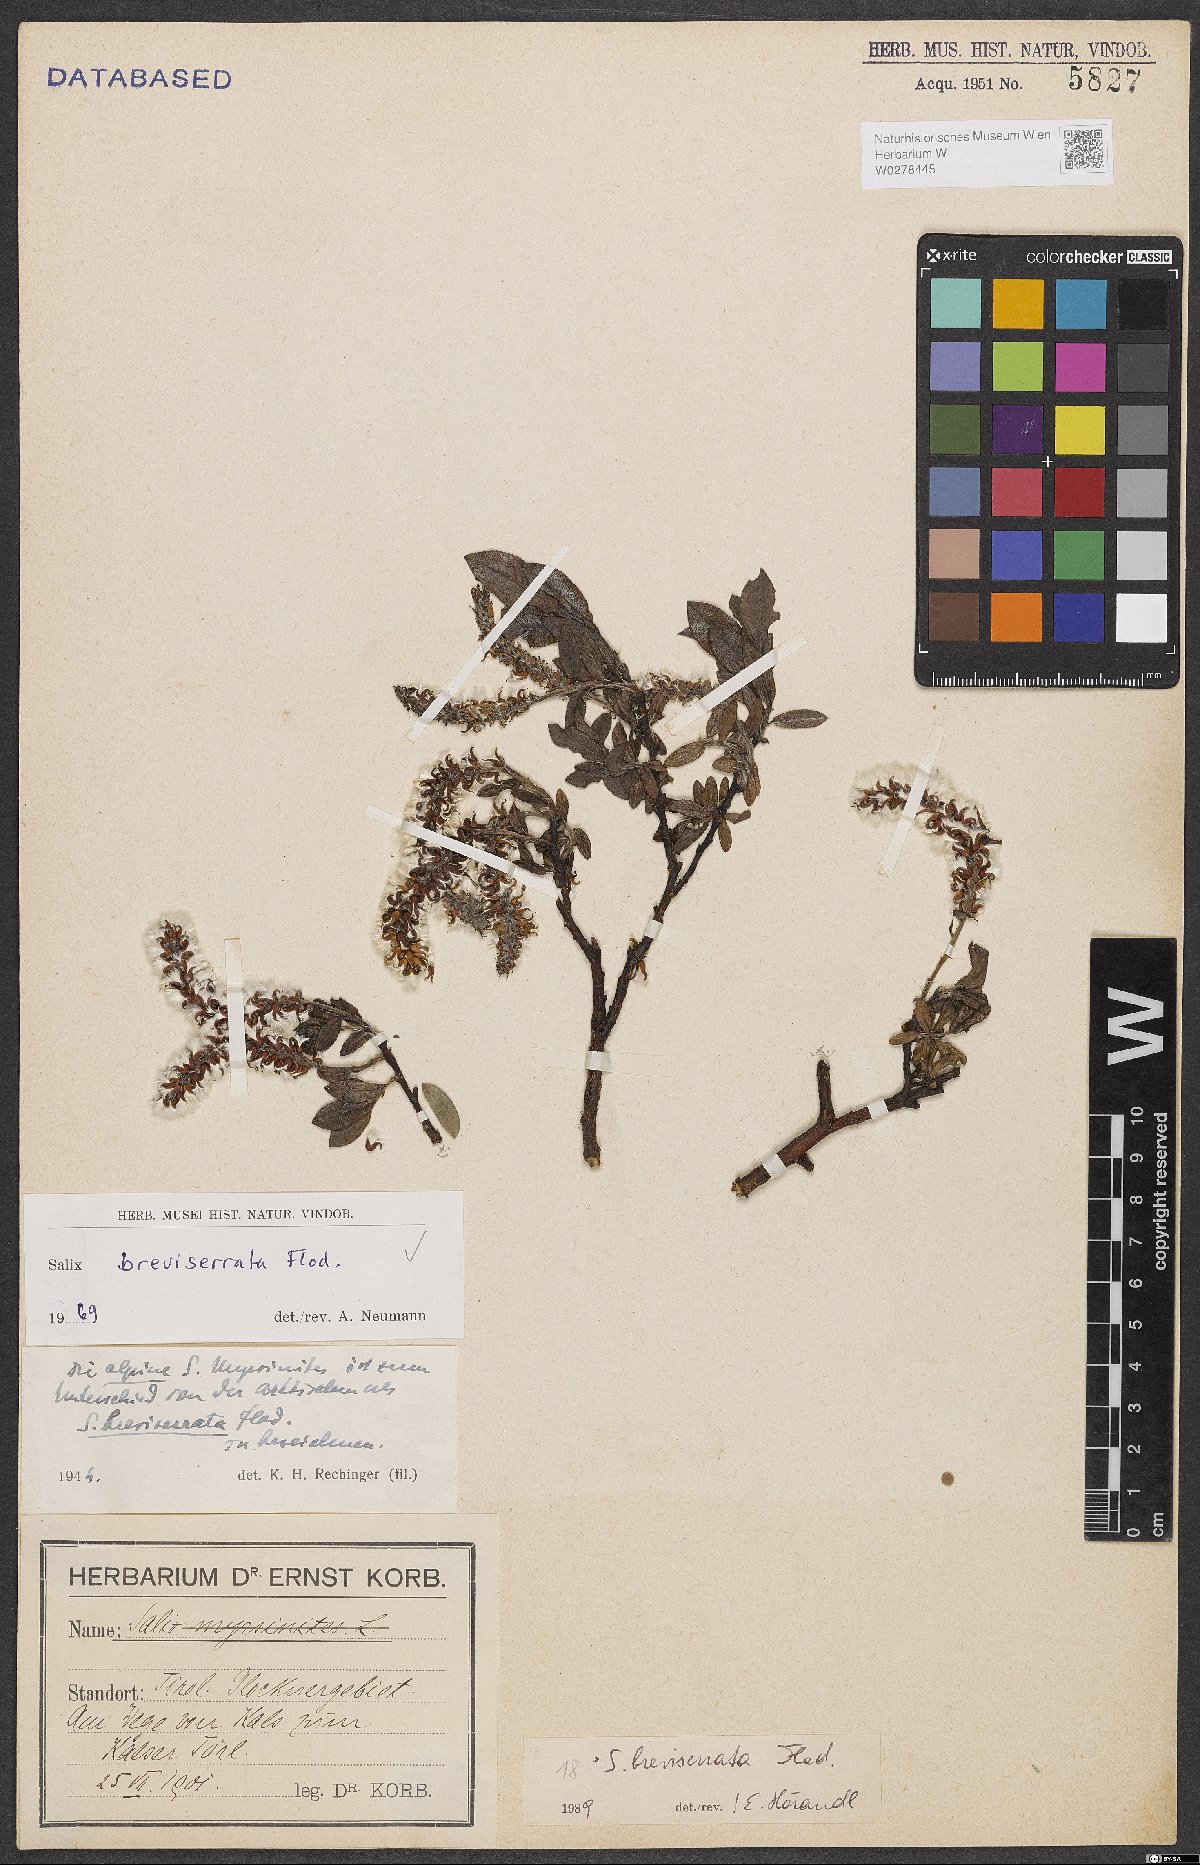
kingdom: Plantae
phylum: Tracheophyta
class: Magnoliopsida
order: Malpighiales
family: Salicaceae
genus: Salix
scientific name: Salix breviserrata
